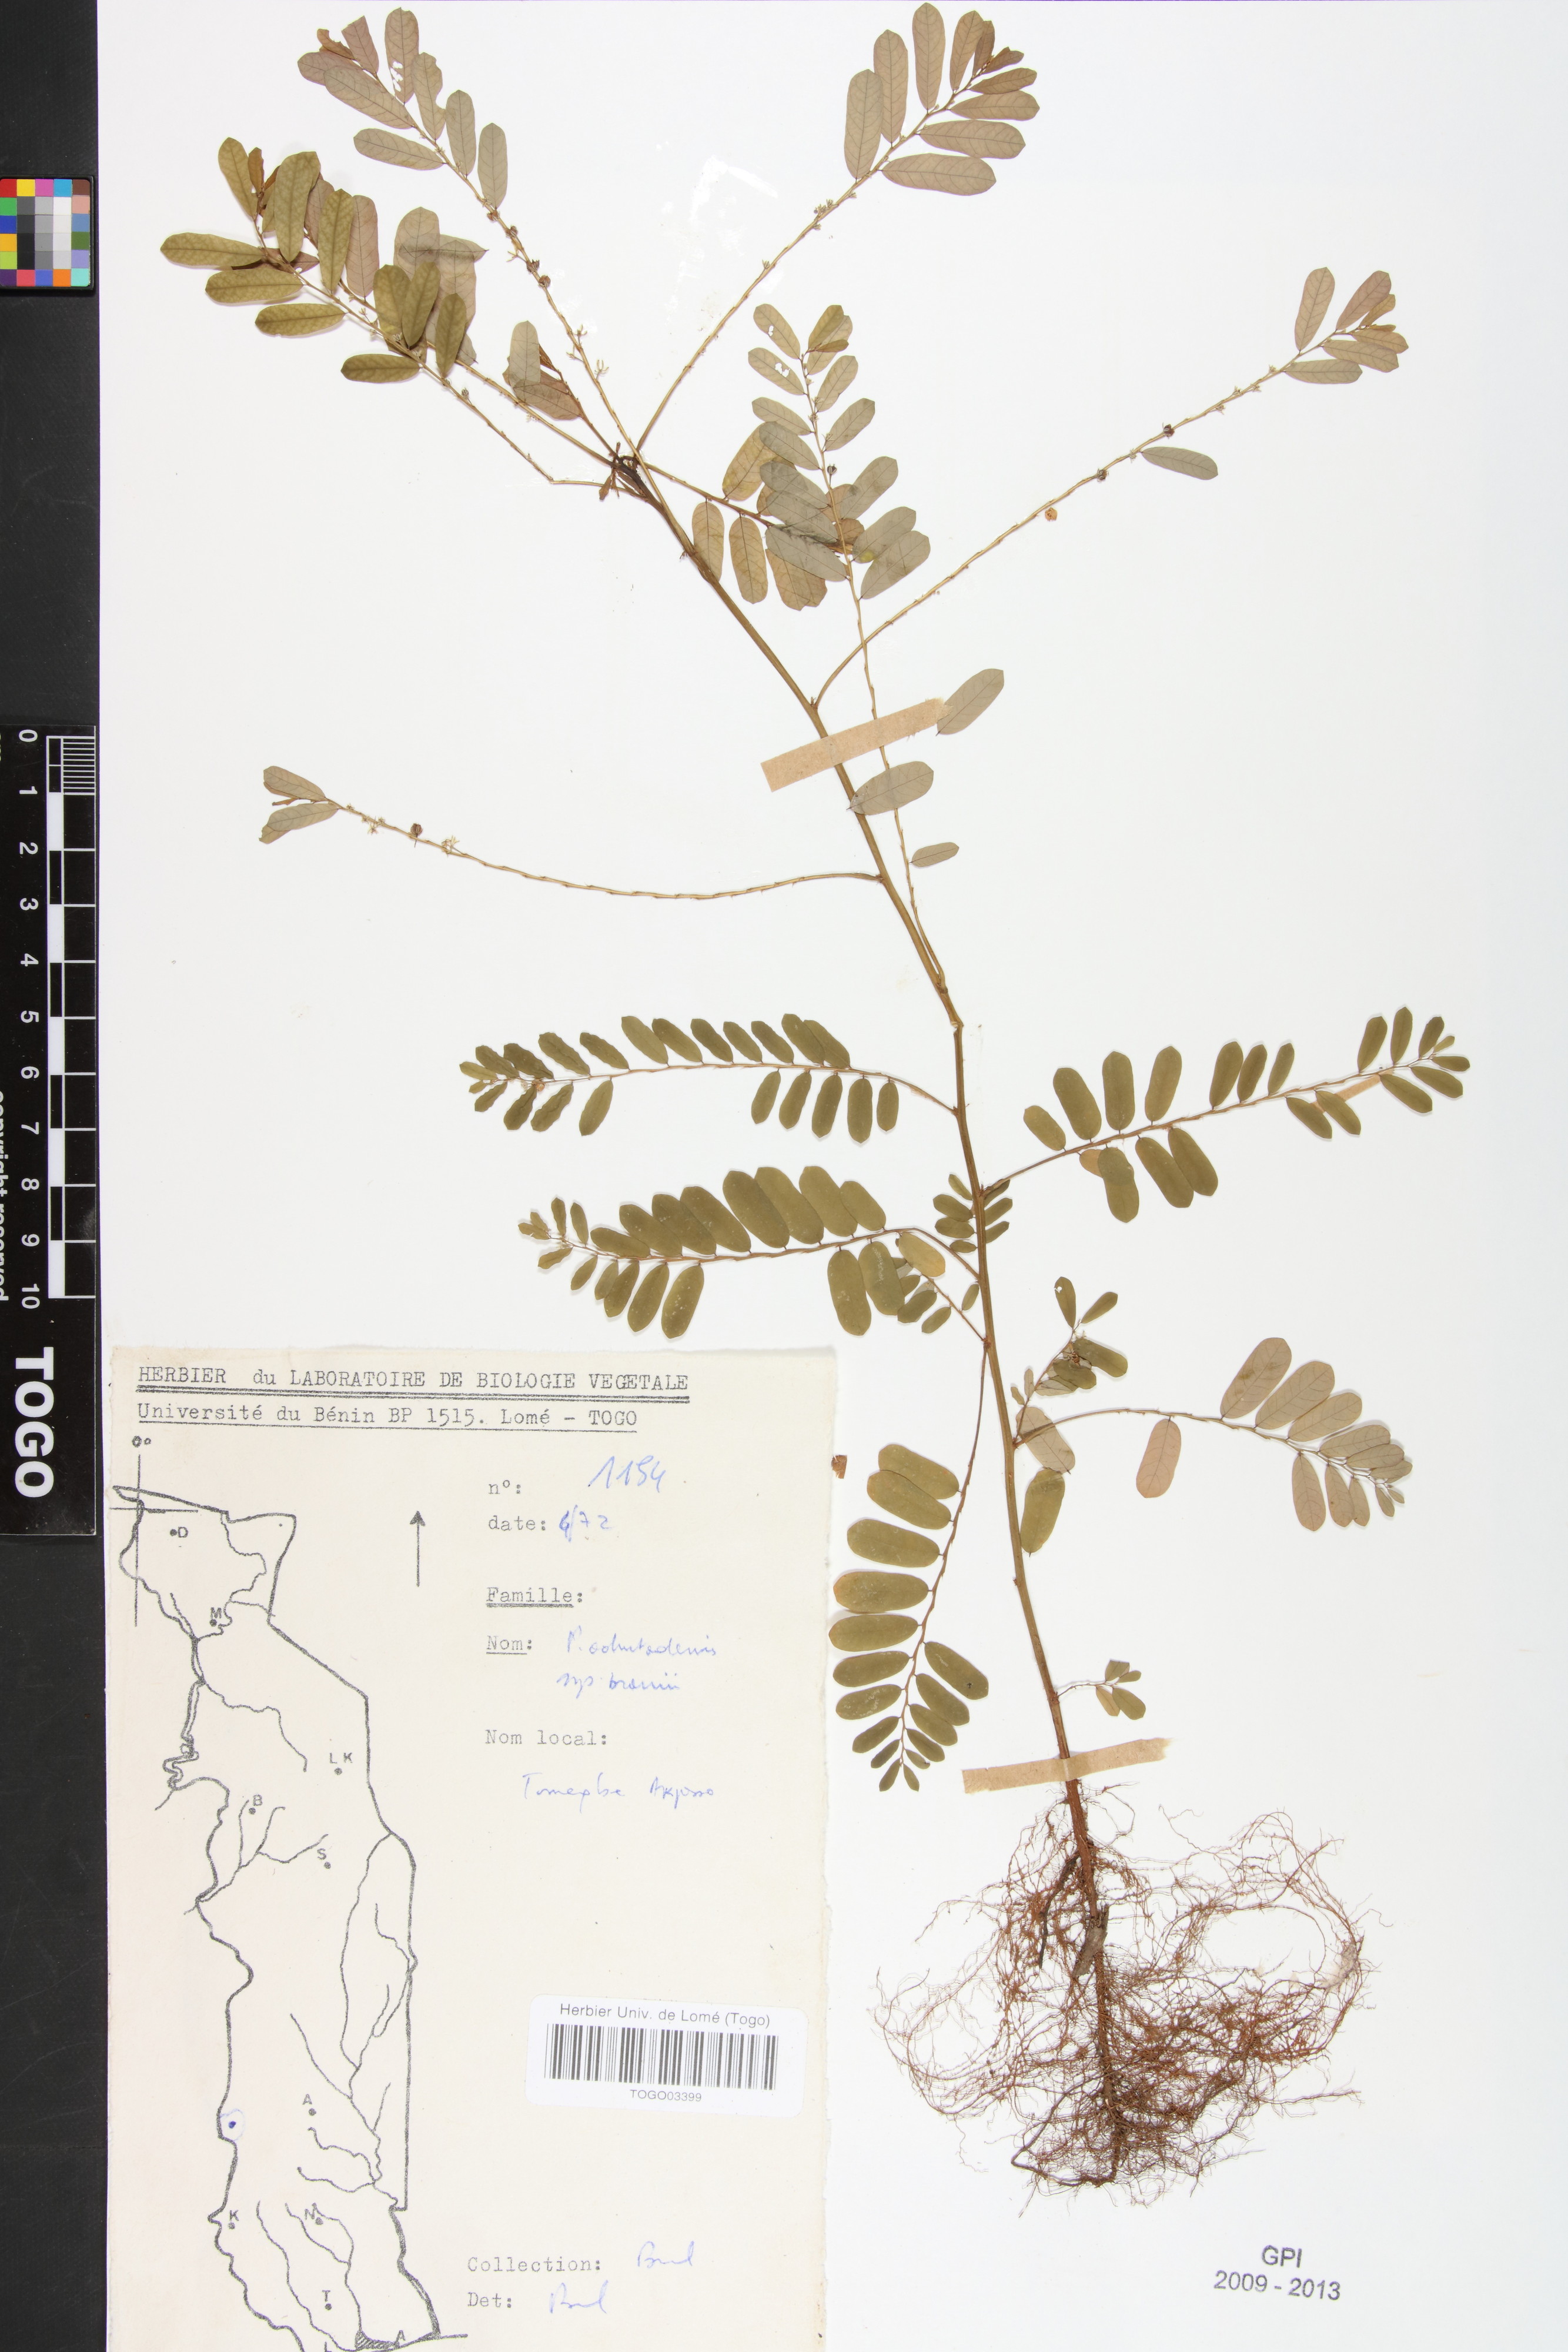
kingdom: Plantae
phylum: Tracheophyta
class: Magnoliopsida
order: Malpighiales
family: Phyllanthaceae
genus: Phyllanthus
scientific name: Phyllanthus odontadenius
